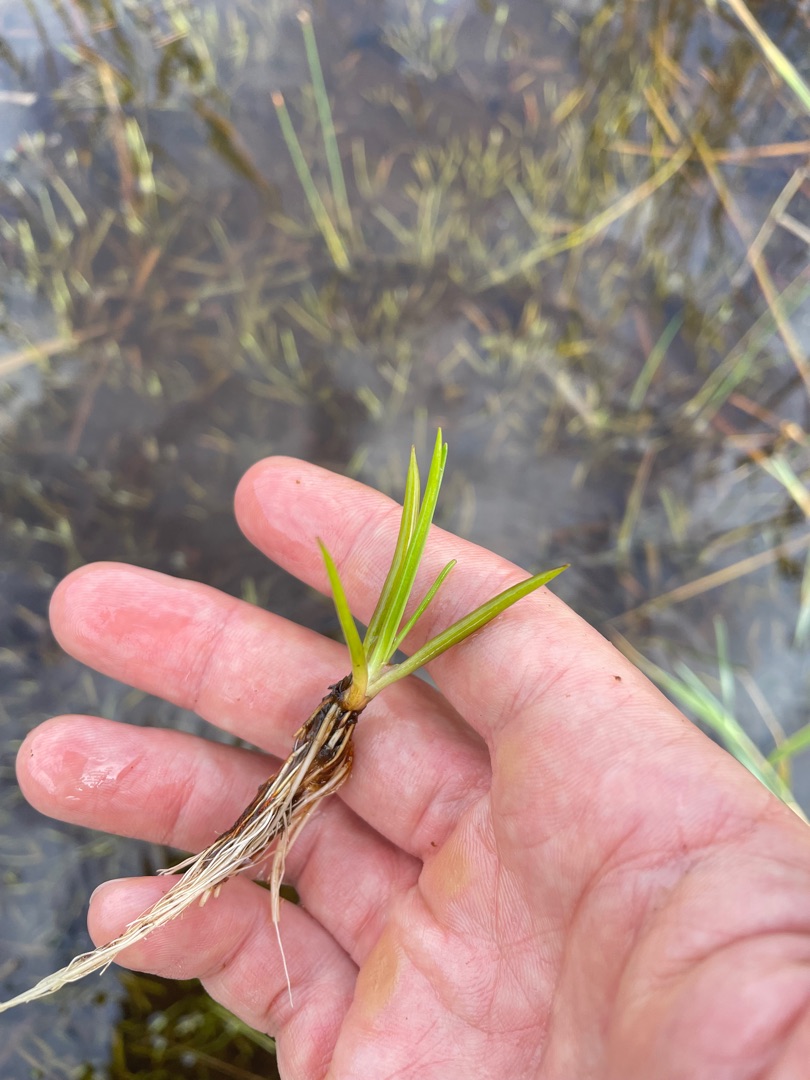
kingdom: Plantae
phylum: Tracheophyta
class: Magnoliopsida
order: Lamiales
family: Plantaginaceae
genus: Littorella
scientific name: Littorella uniflora
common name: Strandbo
